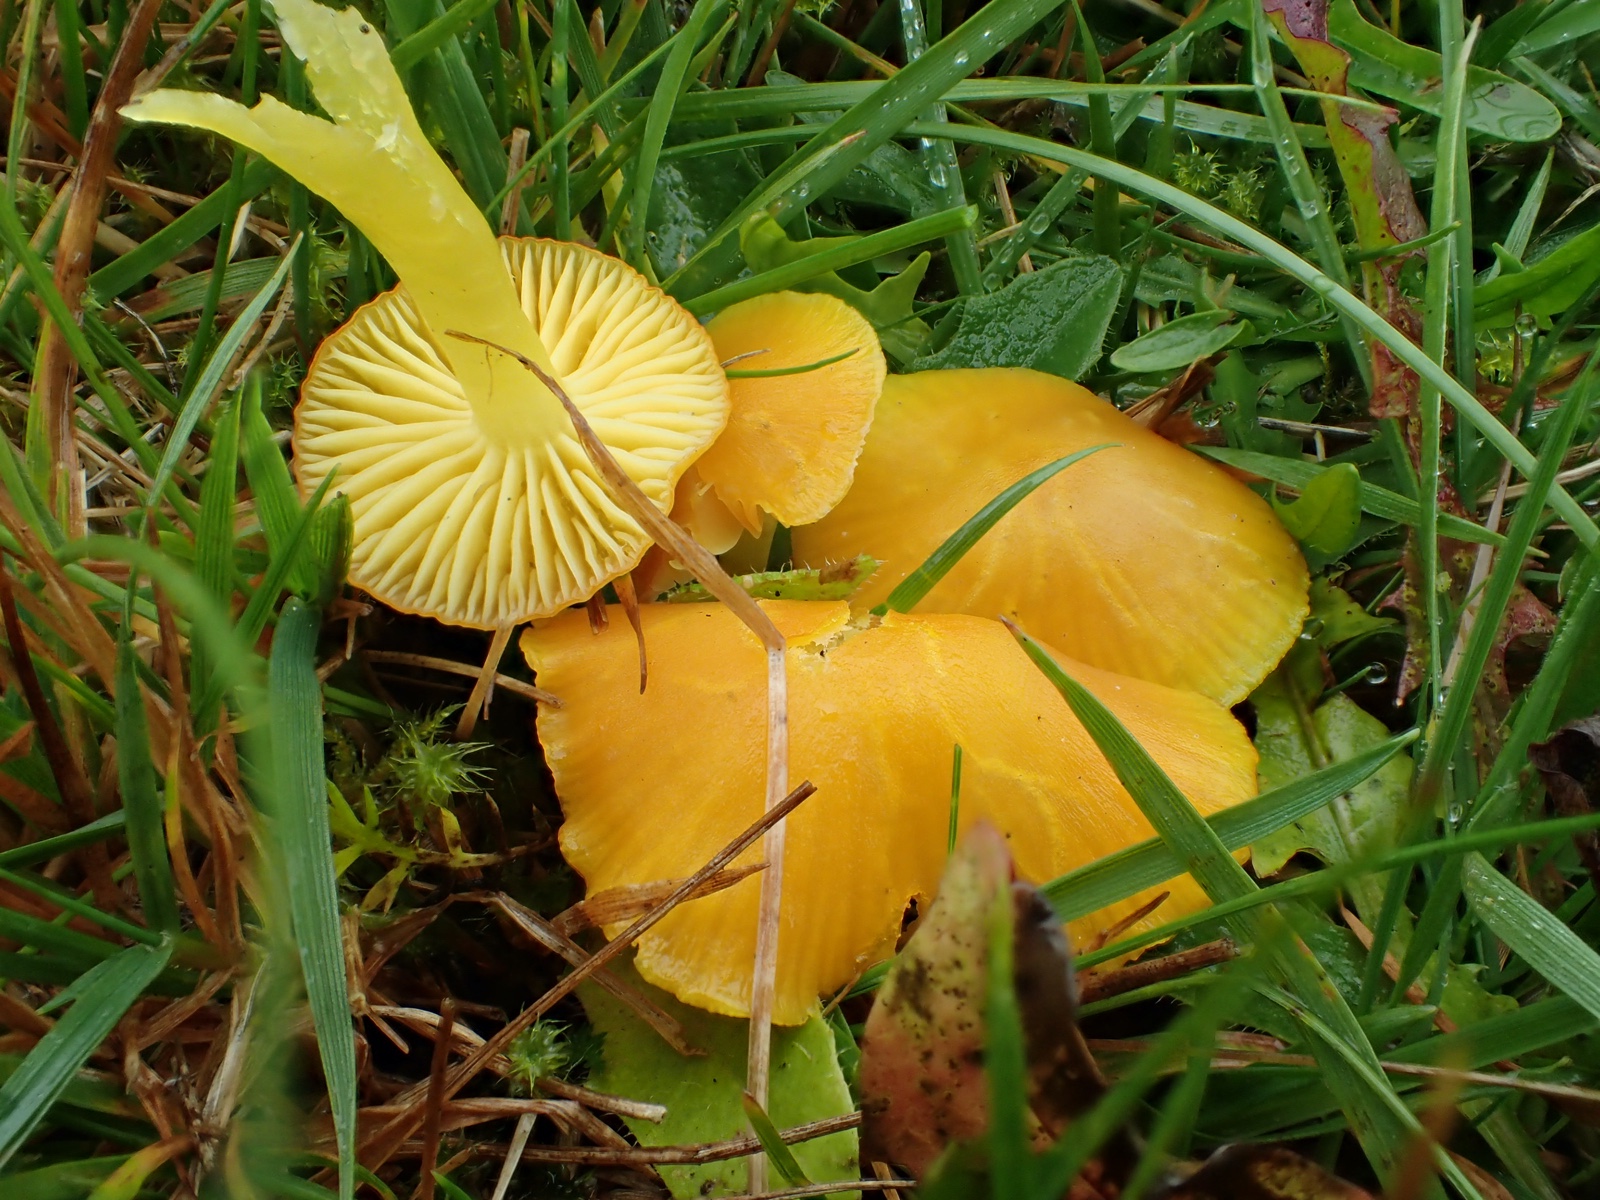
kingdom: Fungi
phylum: Basidiomycota
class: Agaricomycetes
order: Agaricales
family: Hygrophoraceae
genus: Hygrocybe
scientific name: Hygrocybe ceracea
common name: voksgul vokshat
